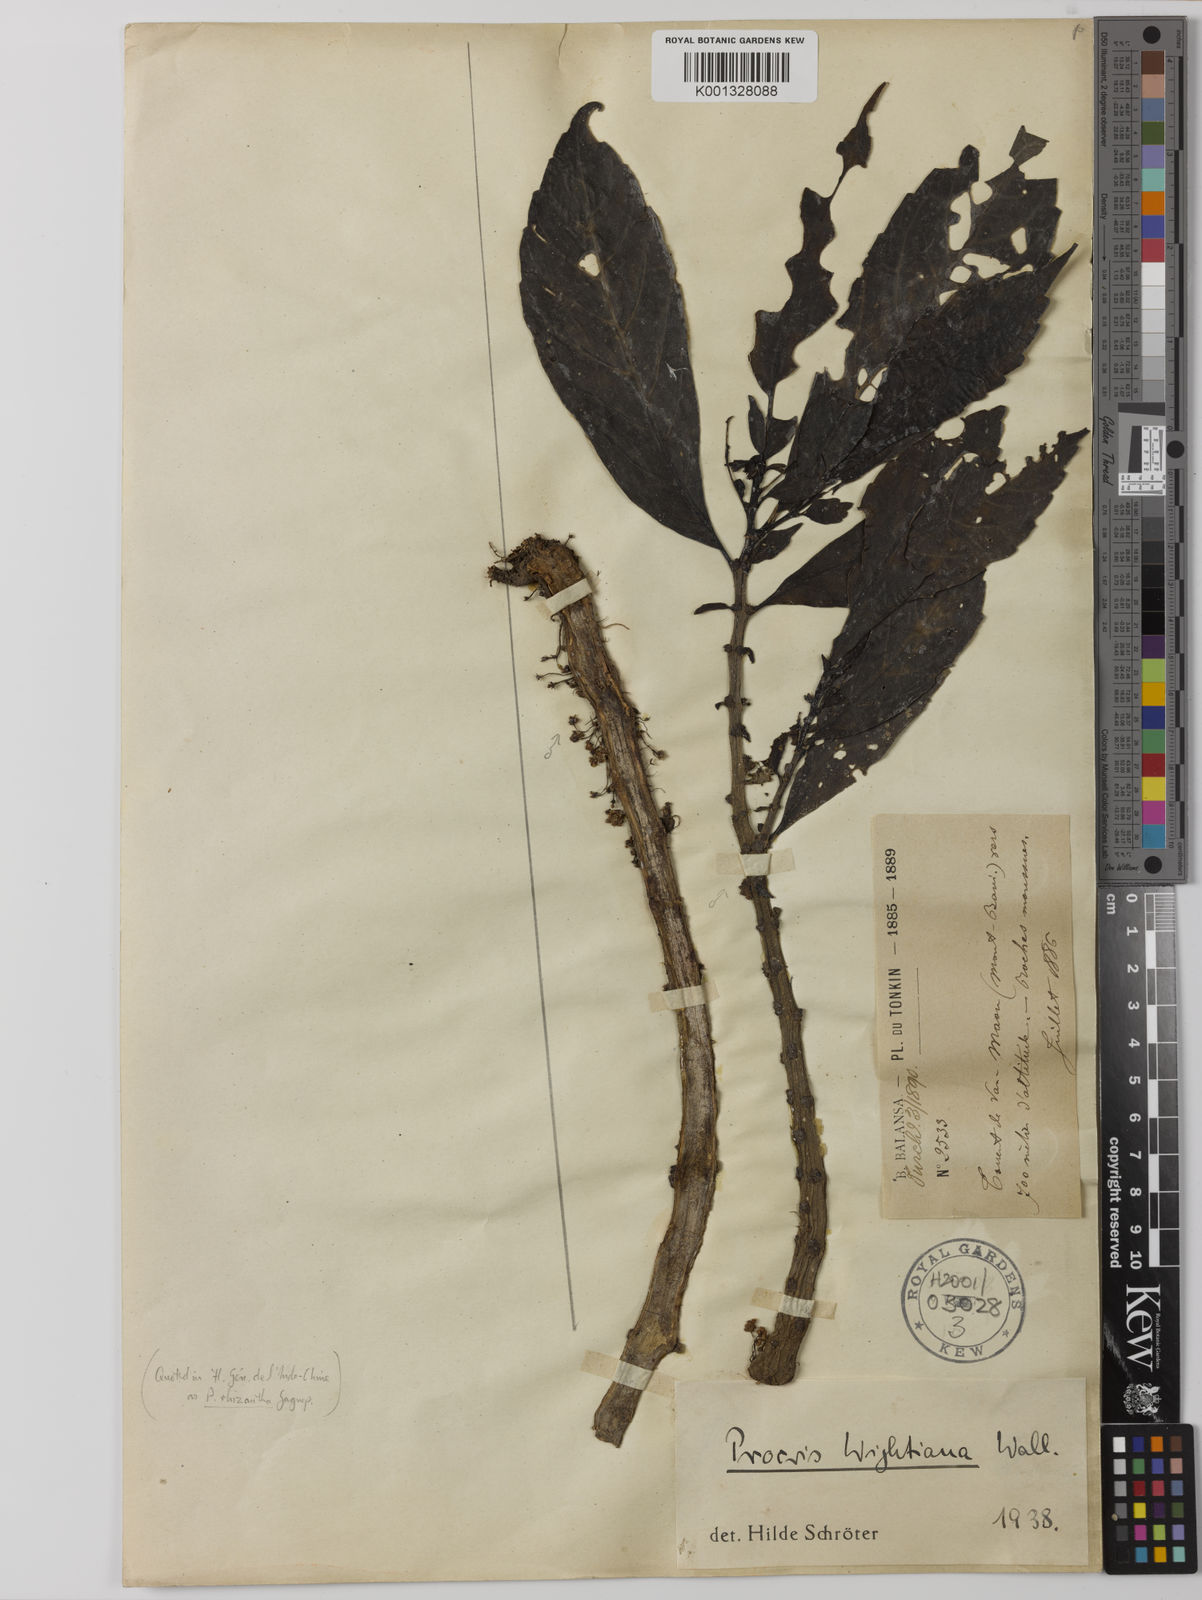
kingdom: Plantae
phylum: Tracheophyta
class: Magnoliopsida
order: Rosales
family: Urticaceae
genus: Procris
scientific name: Procris crenata
